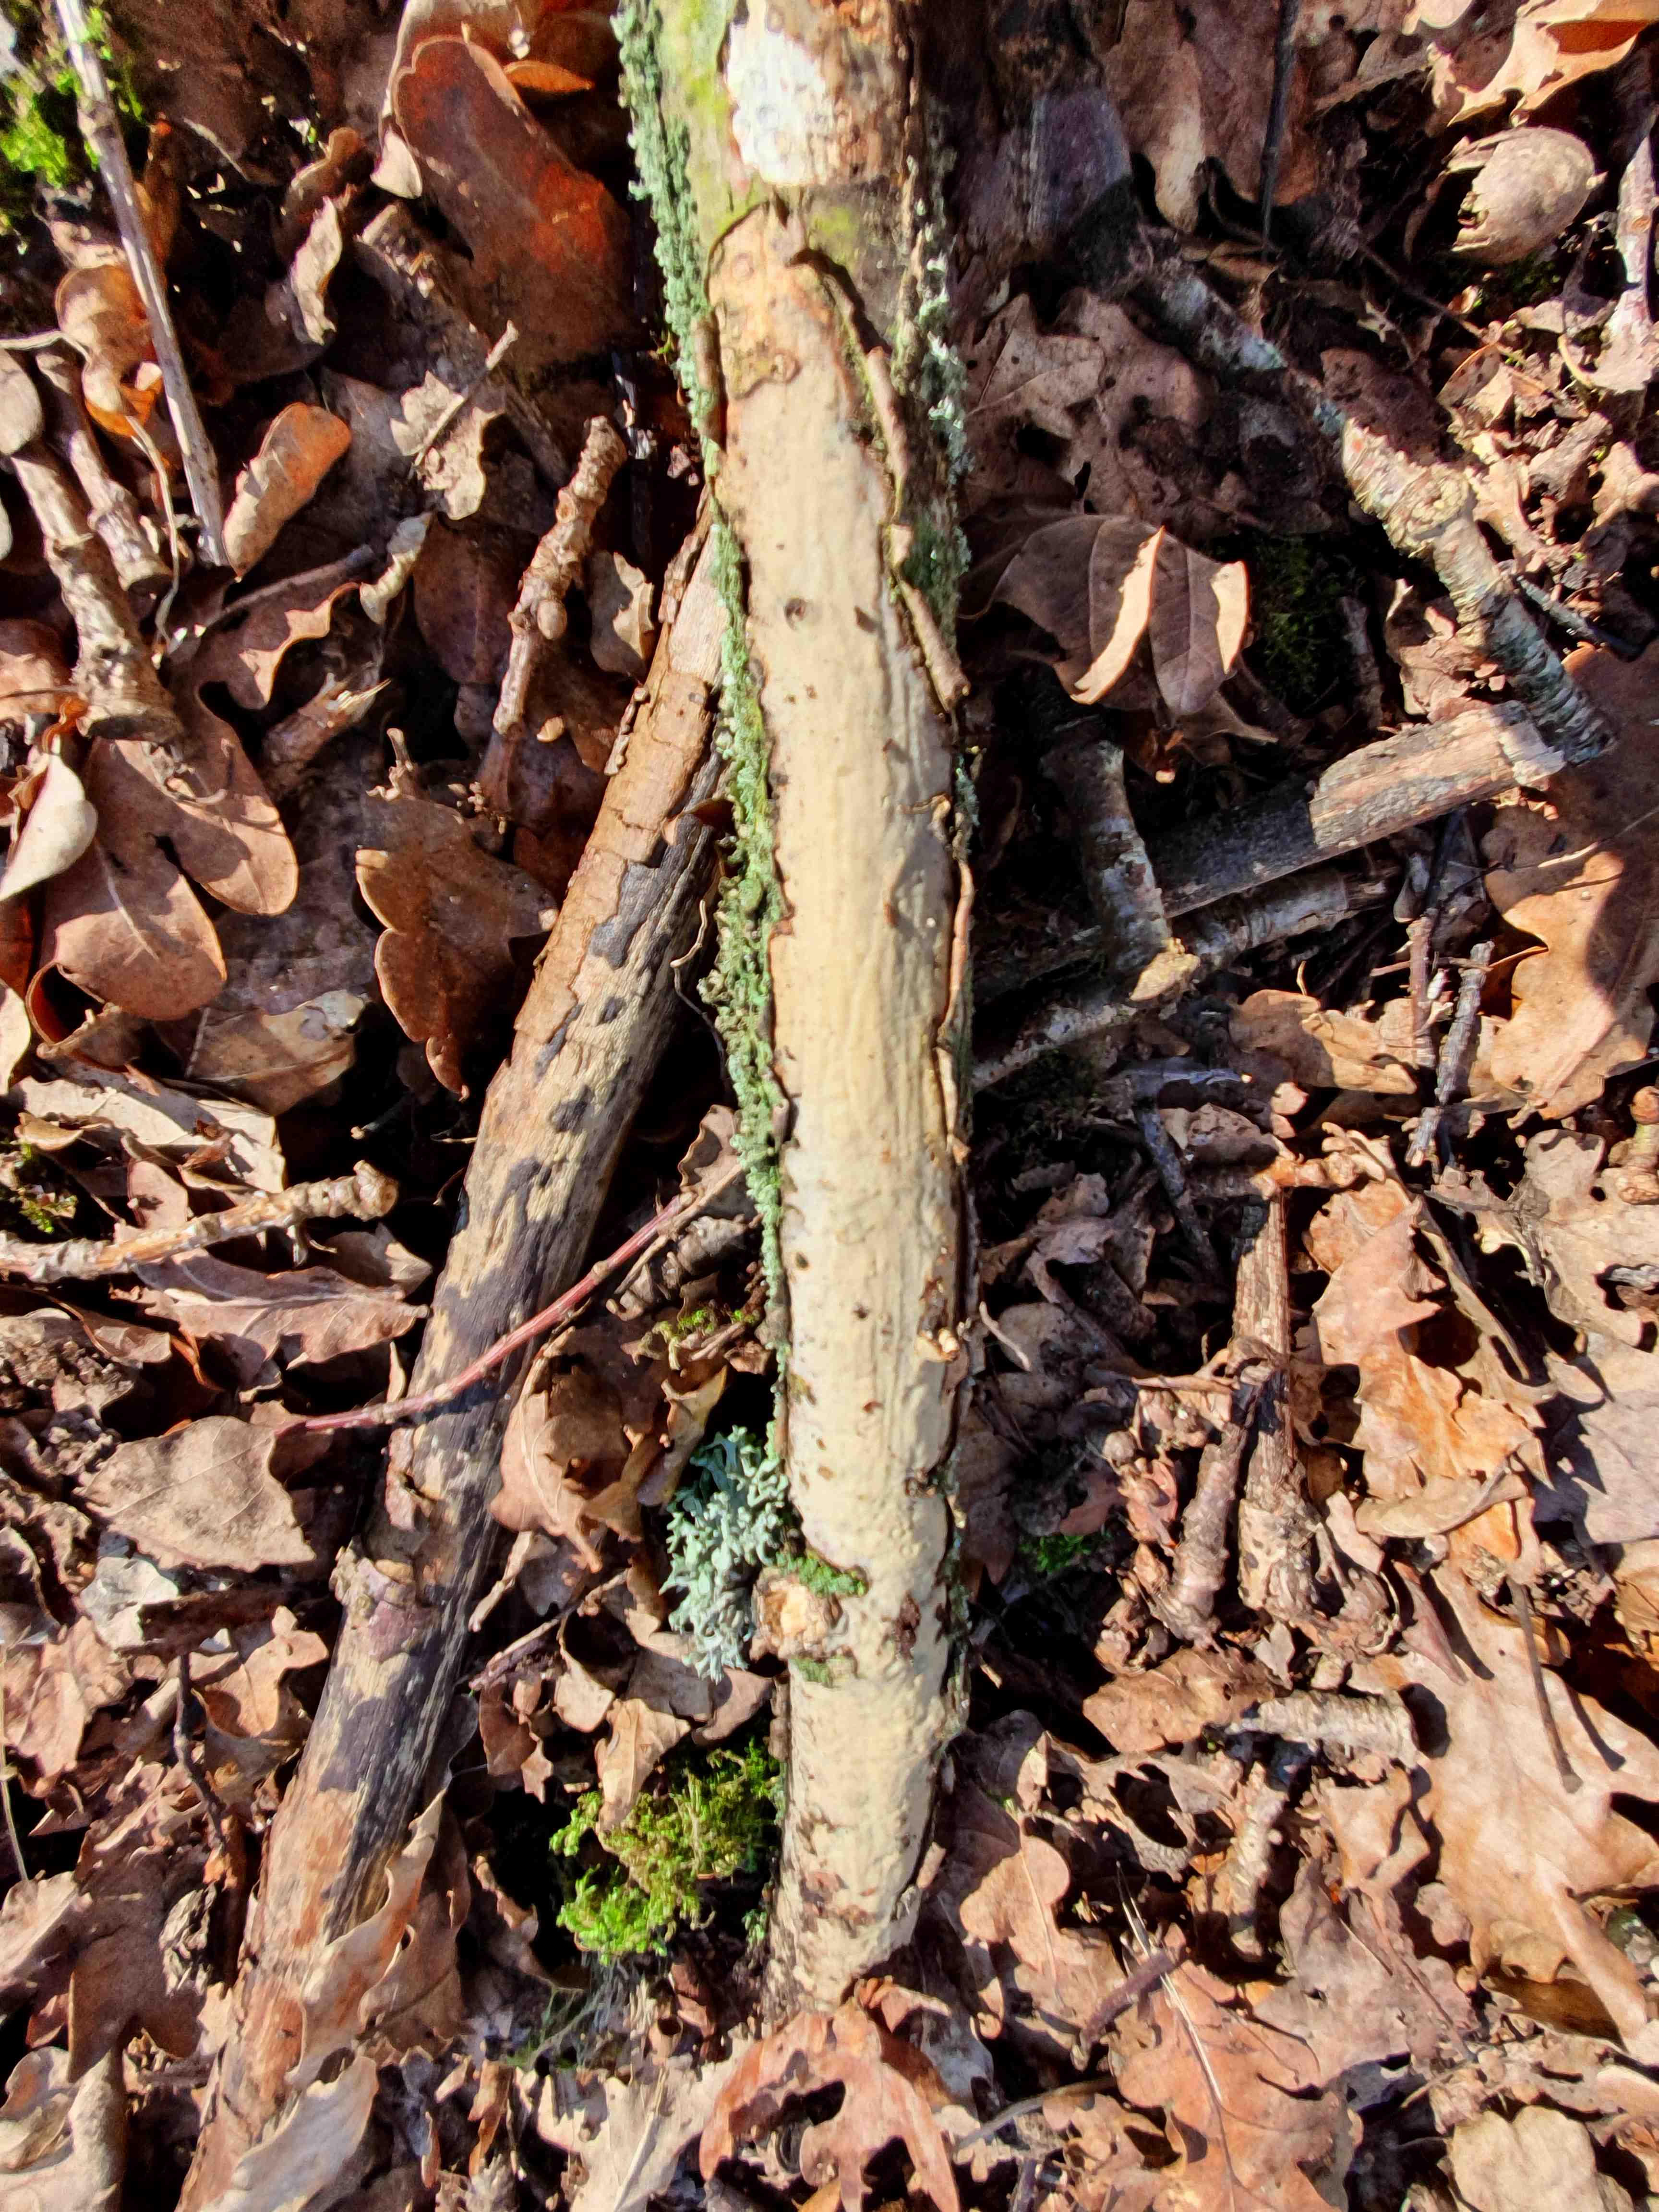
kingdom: Fungi
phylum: Basidiomycota
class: Agaricomycetes
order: Corticiales
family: Vuilleminiaceae
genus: Vuilleminia
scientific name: Vuilleminia comedens
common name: almindelig barksprænger
